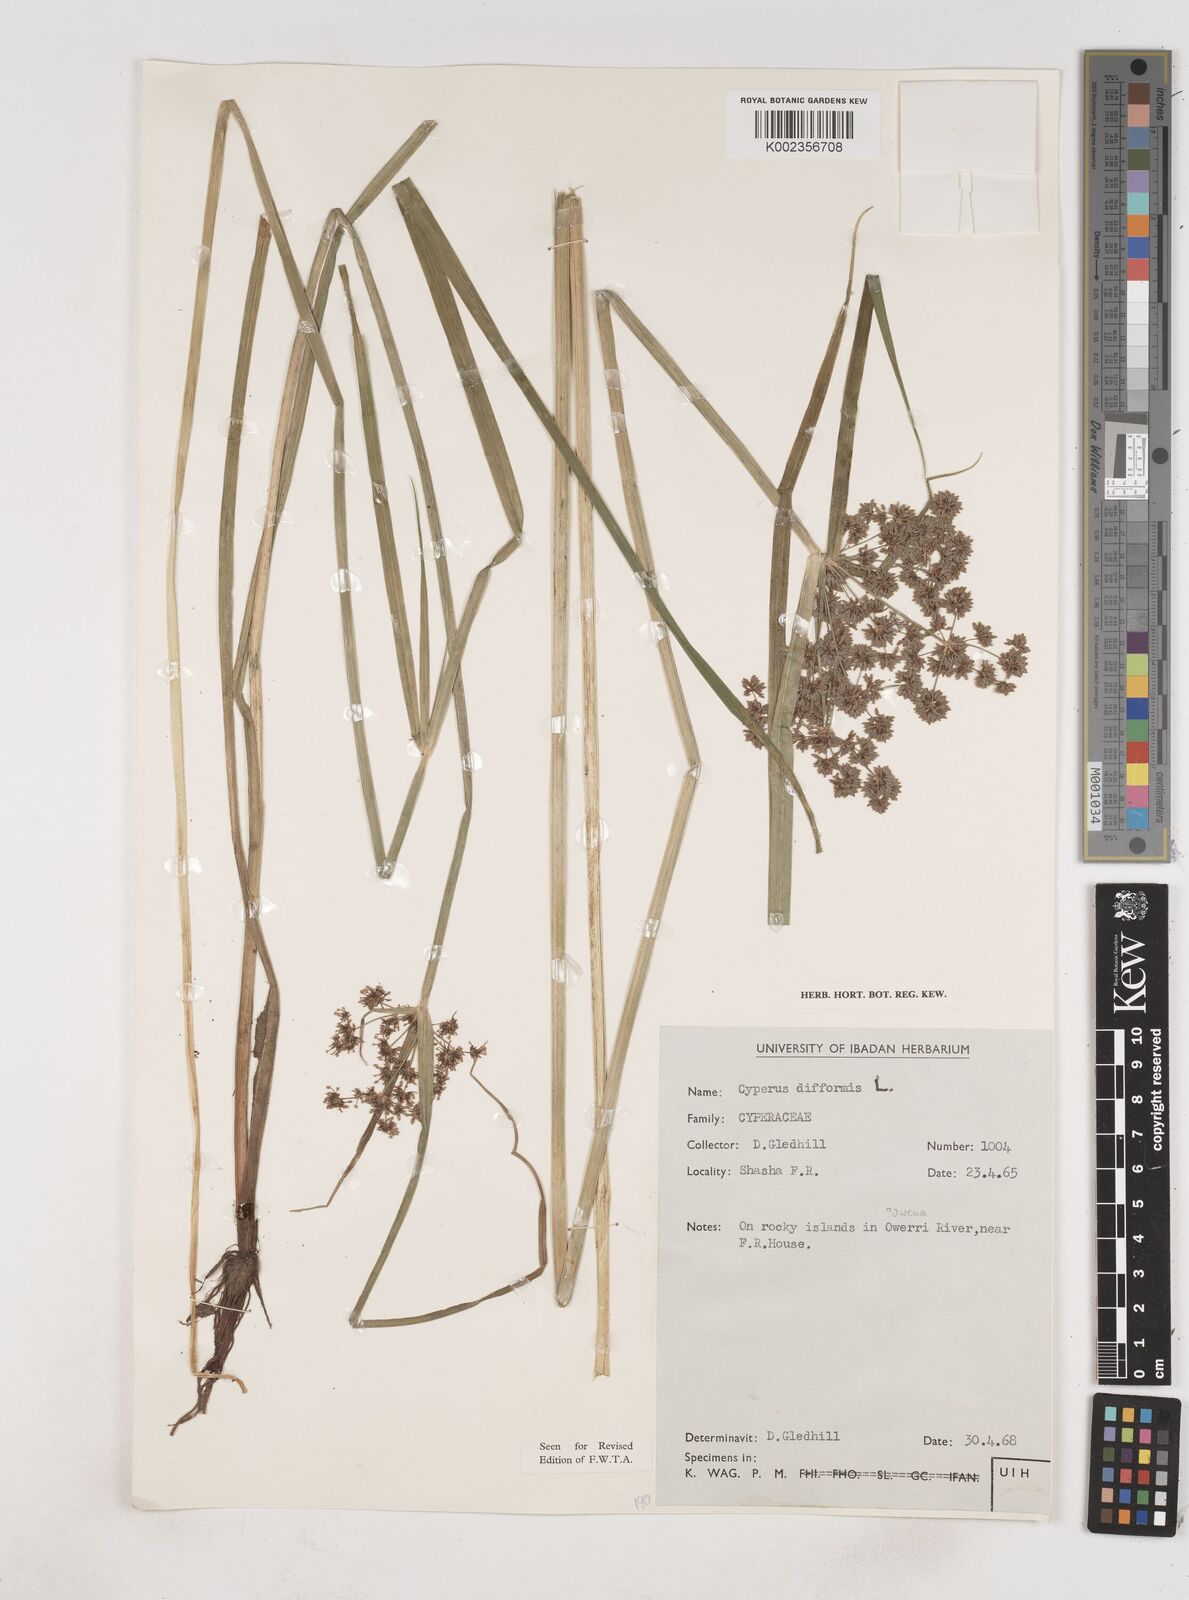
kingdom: Plantae
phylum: Tracheophyta
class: Liliopsida
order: Poales
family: Cyperaceae
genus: Cyperus
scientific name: Cyperus difformis
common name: Variable flatsedge
